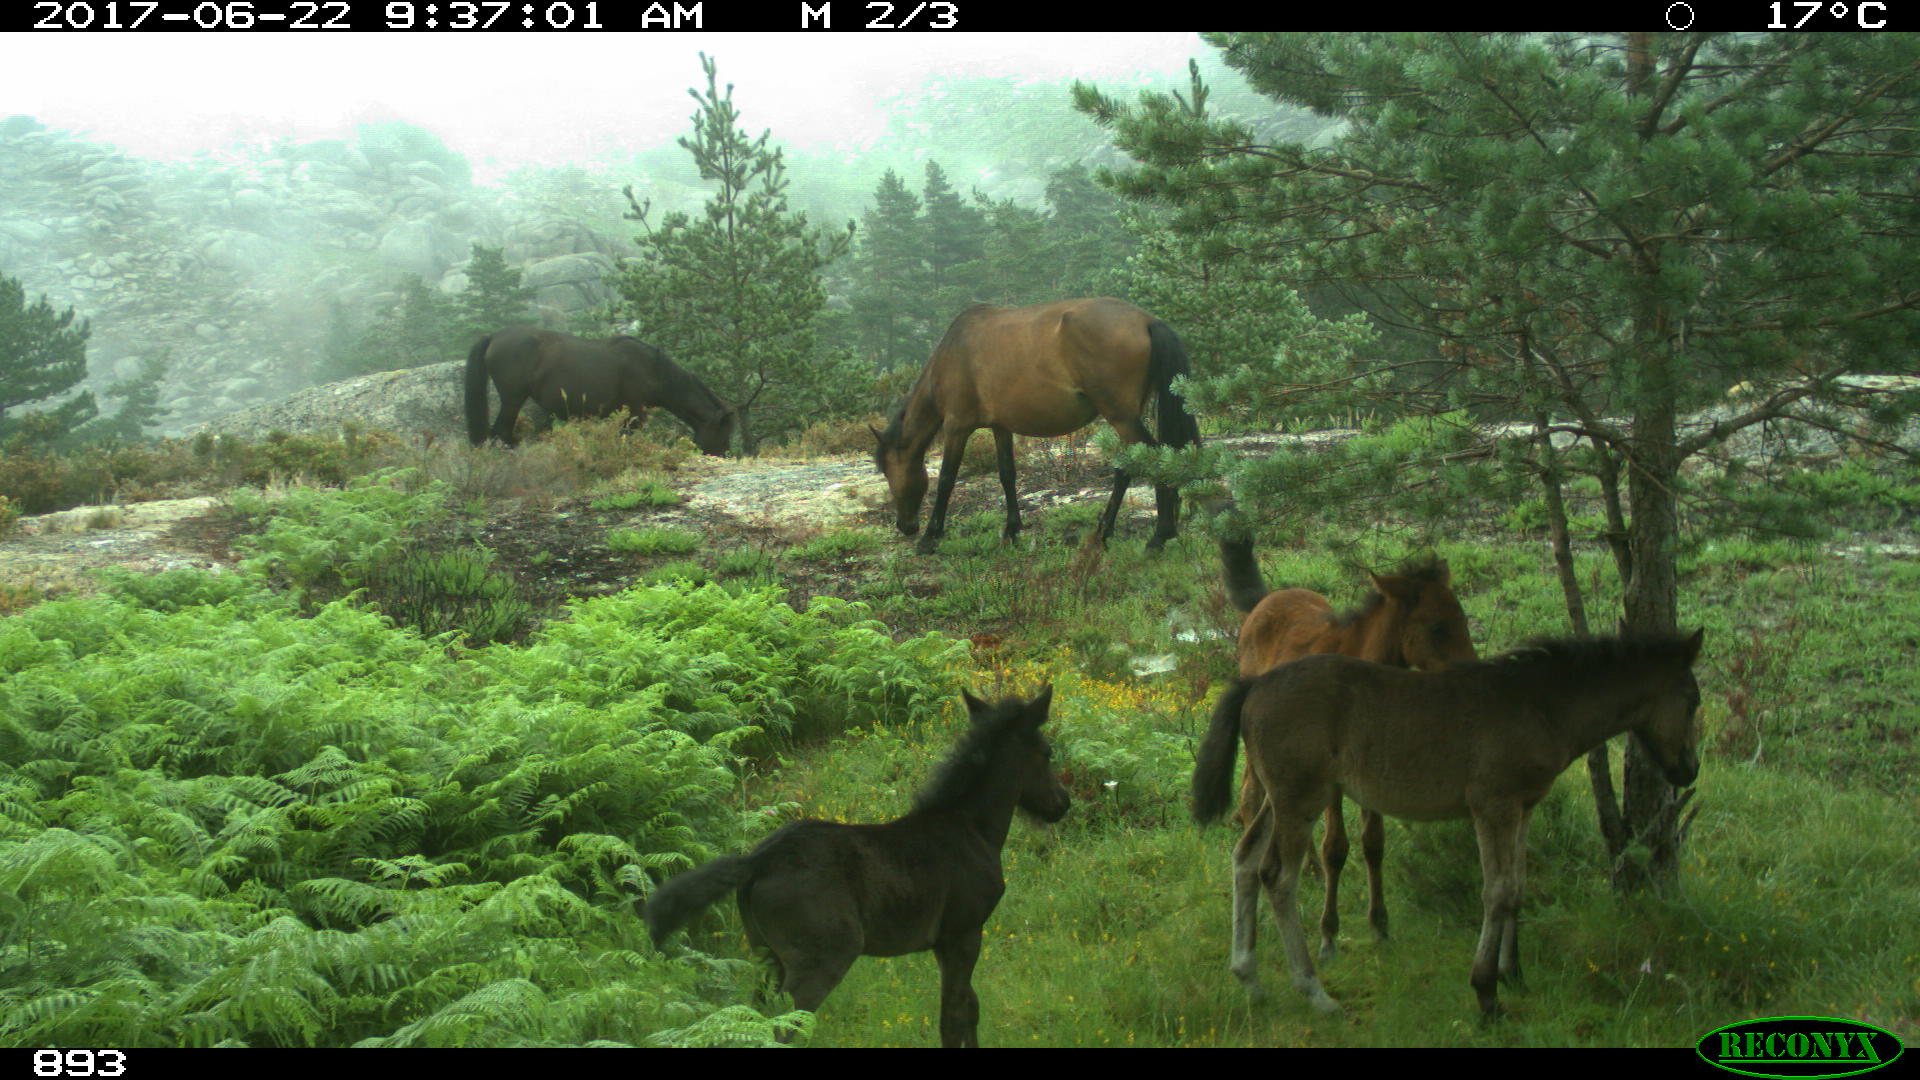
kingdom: Animalia
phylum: Chordata
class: Mammalia
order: Perissodactyla
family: Equidae
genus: Equus
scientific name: Equus caballus
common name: Horse
